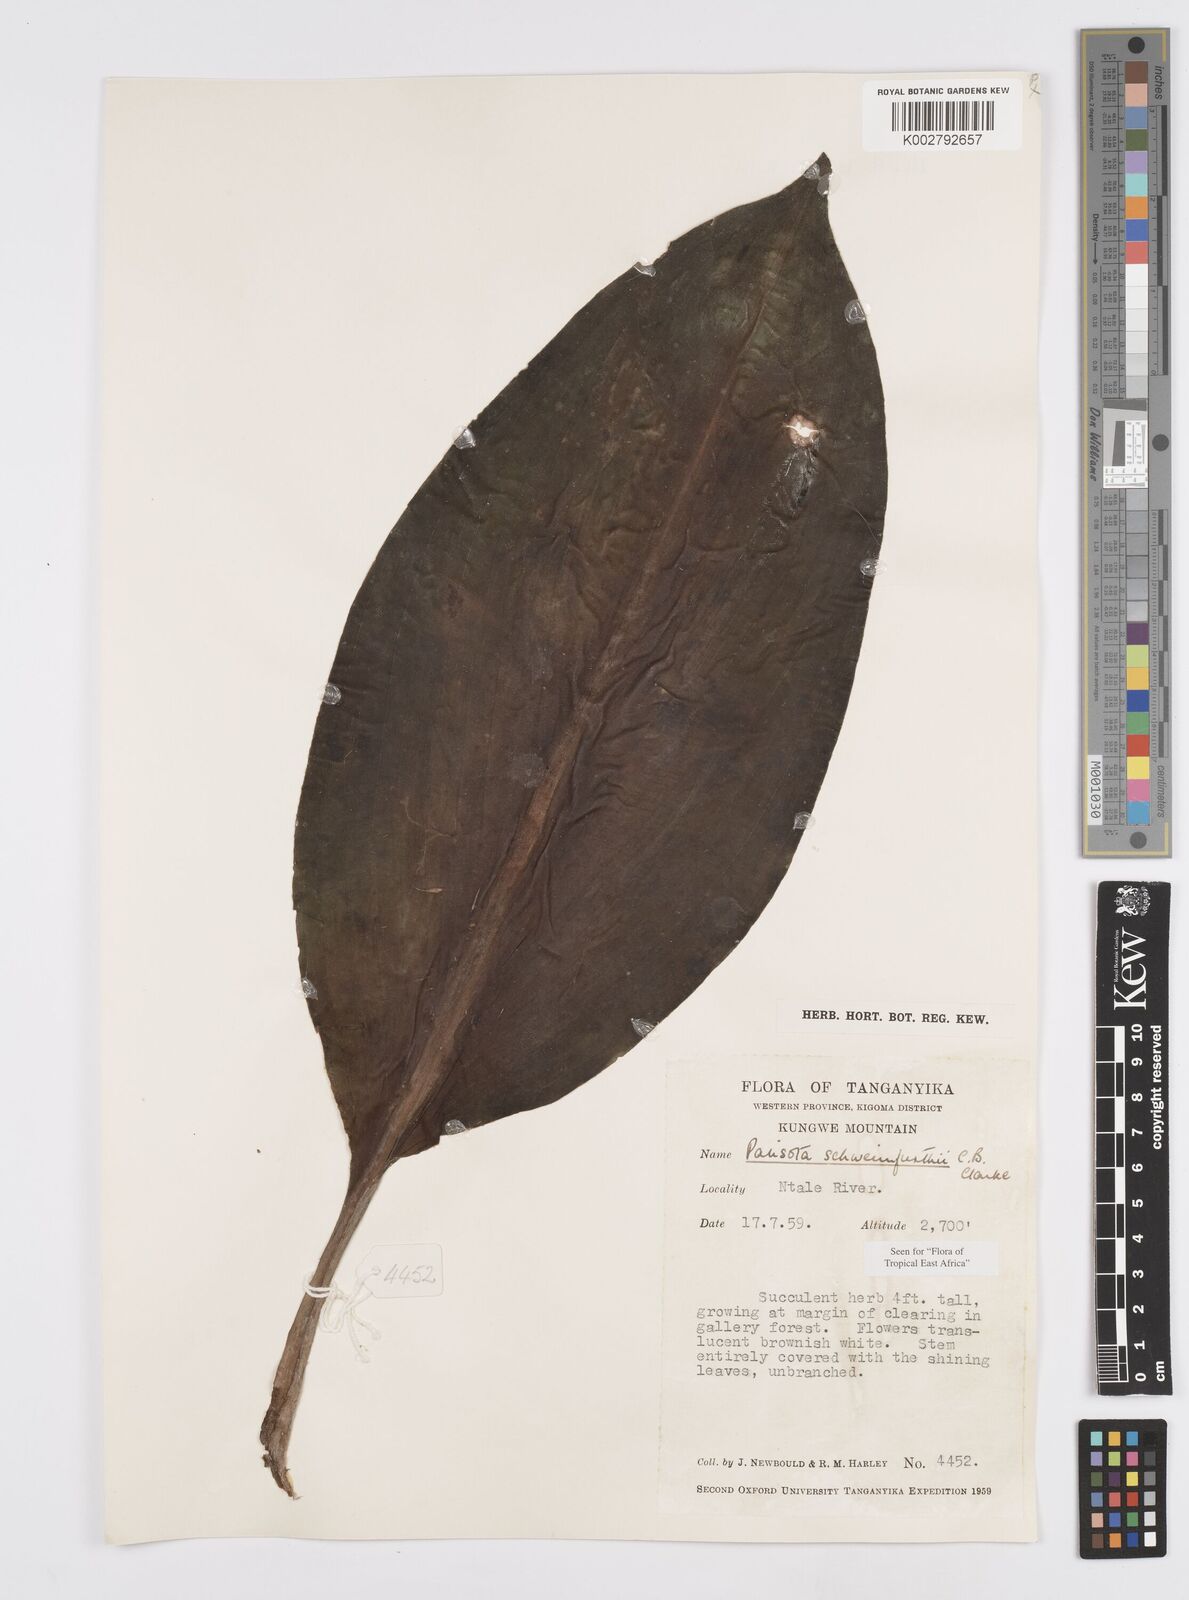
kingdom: Plantae
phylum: Tracheophyta
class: Liliopsida
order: Commelinales
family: Commelinaceae
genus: Palisota
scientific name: Palisota schweinfurthii
